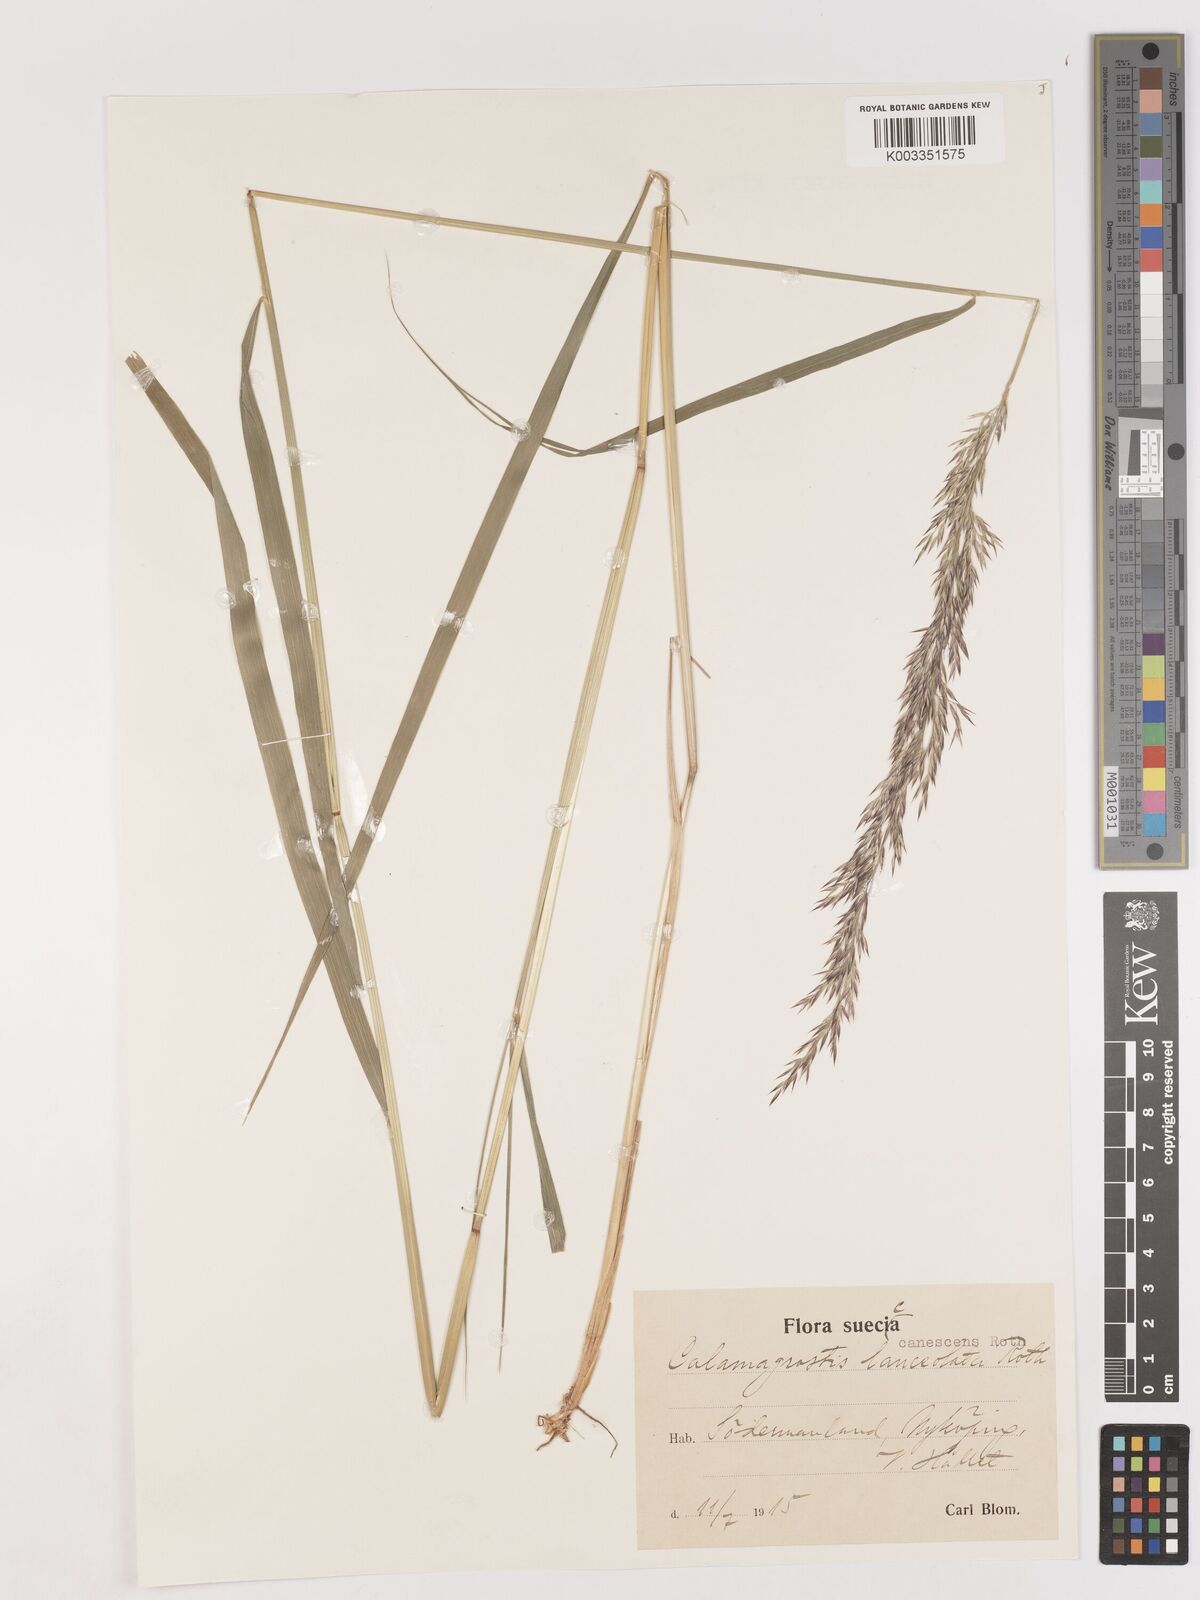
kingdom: Plantae
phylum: Tracheophyta
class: Liliopsida
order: Poales
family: Poaceae
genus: Calamagrostis
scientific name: Calamagrostis canescens
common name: Purple small-reed
